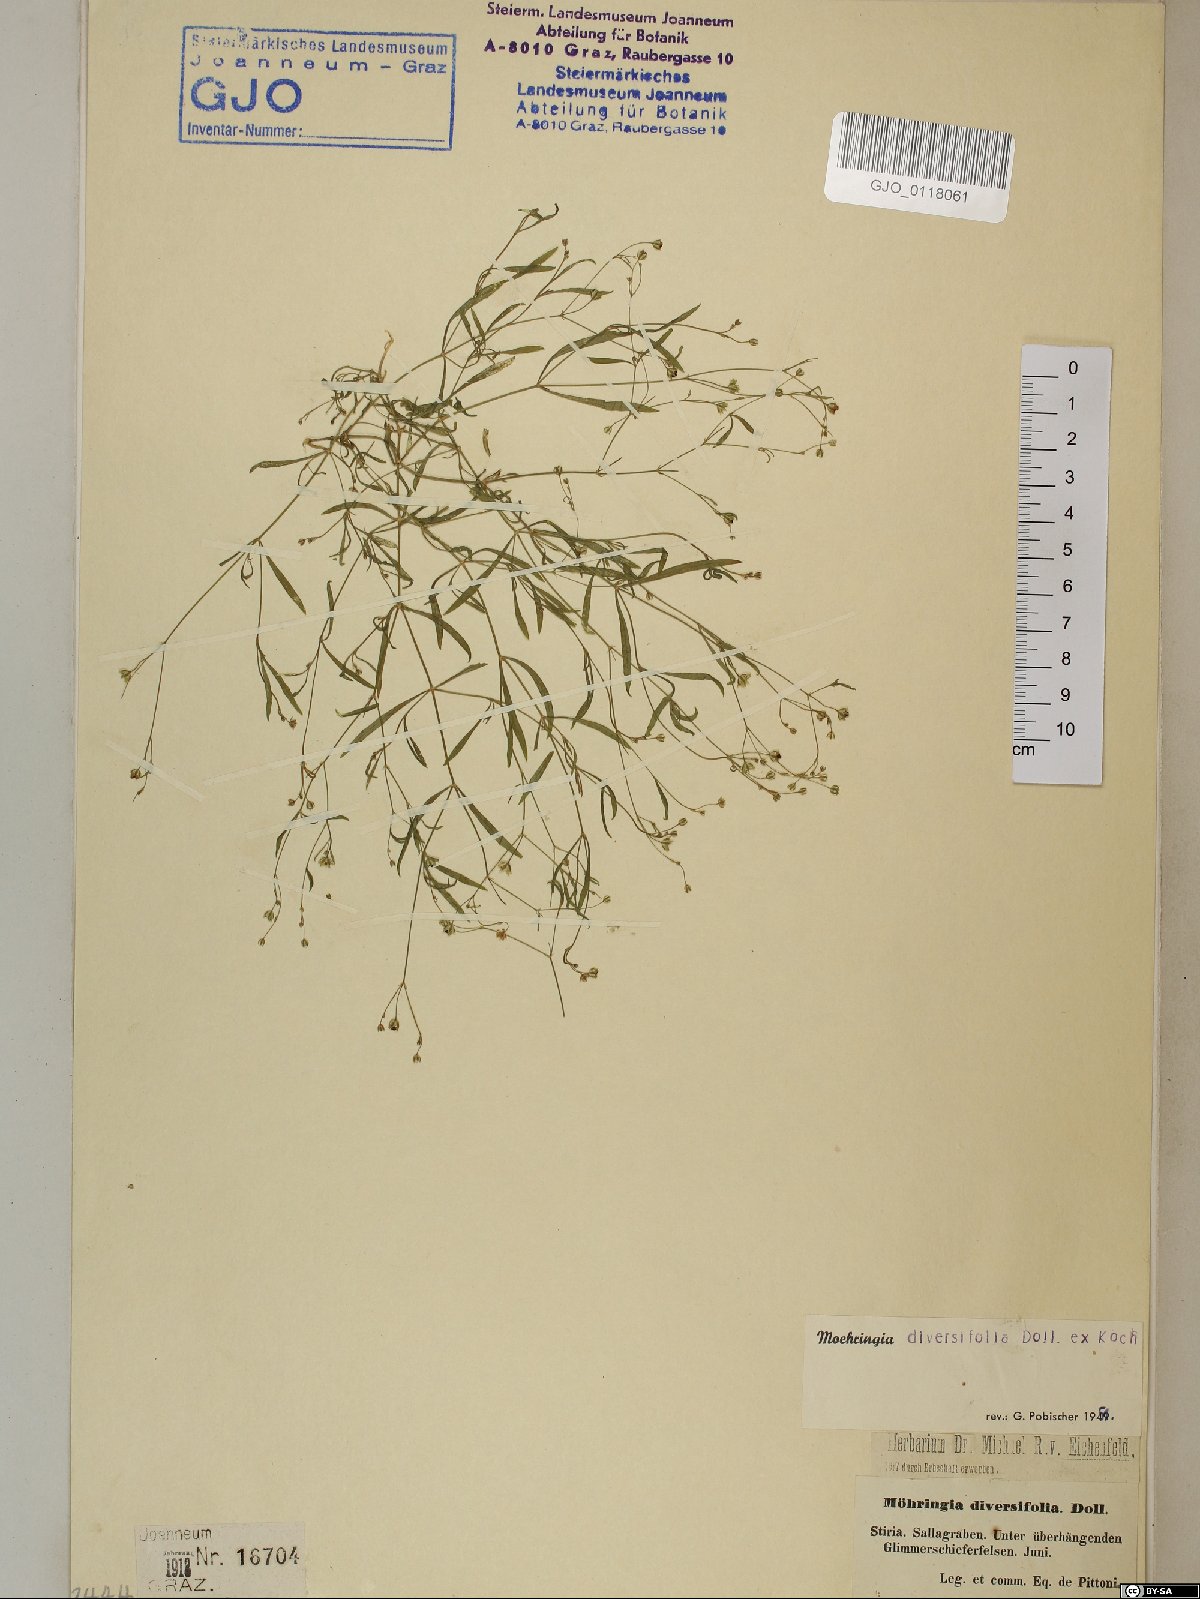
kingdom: Plantae
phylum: Tracheophyta
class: Magnoliopsida
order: Caryophyllales
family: Caryophyllaceae
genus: Moehringia
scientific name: Moehringia diversifolia
